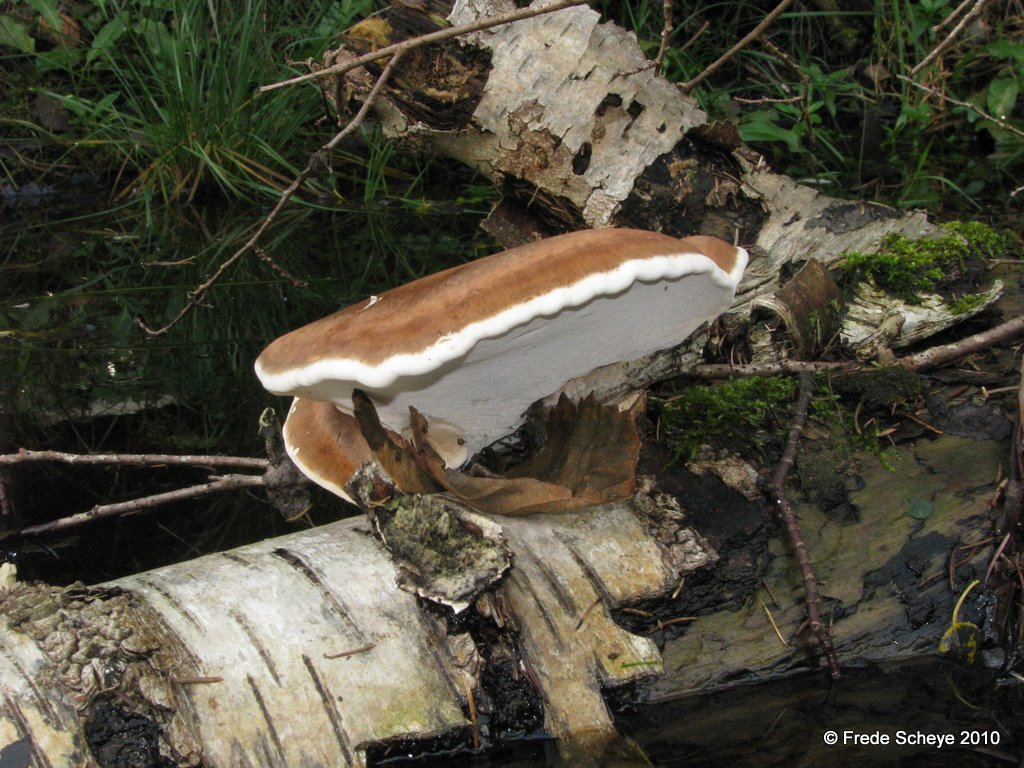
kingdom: Fungi
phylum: Basidiomycota
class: Agaricomycetes
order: Polyporales
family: Fomitopsidaceae
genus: Fomitopsis
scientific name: Fomitopsis betulina
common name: birkeporesvamp
